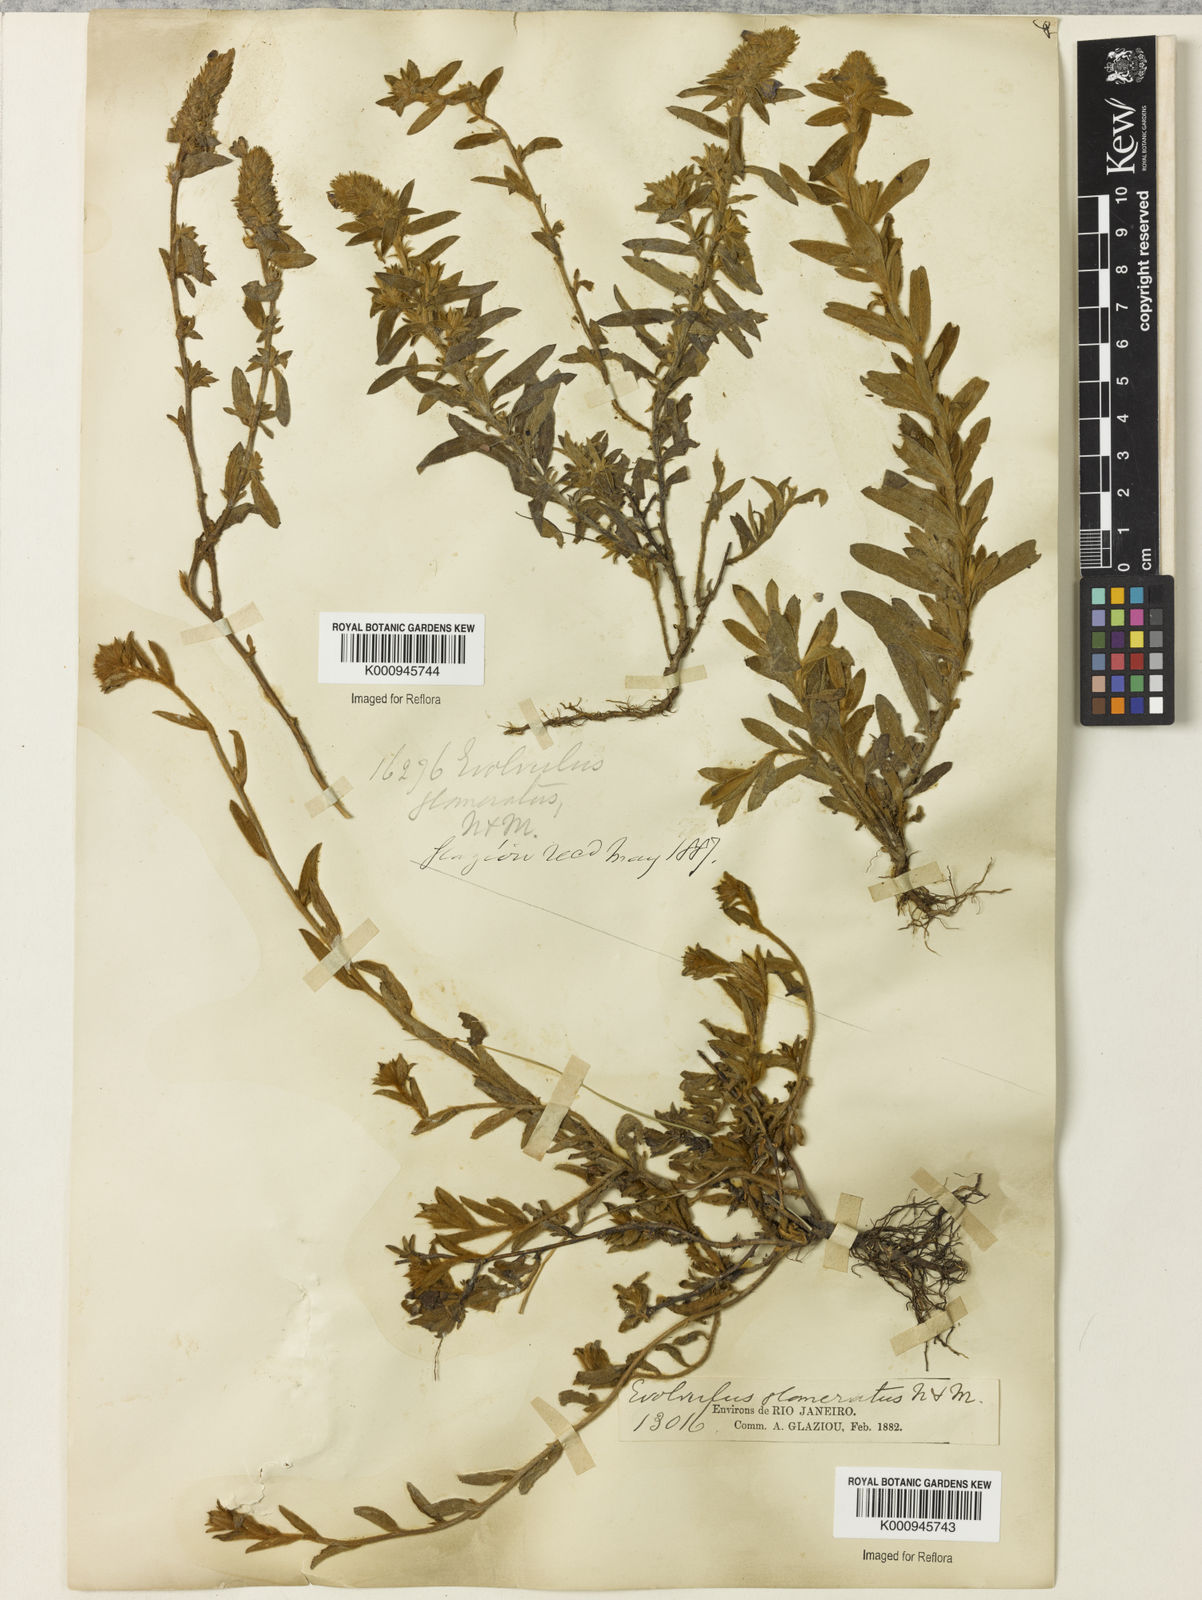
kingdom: Plantae
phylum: Tracheophyta
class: Magnoliopsida
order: Solanales
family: Convolvulaceae
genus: Evolvulus
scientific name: Evolvulus glomeratus
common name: Brazilian dwarf morning-glory
